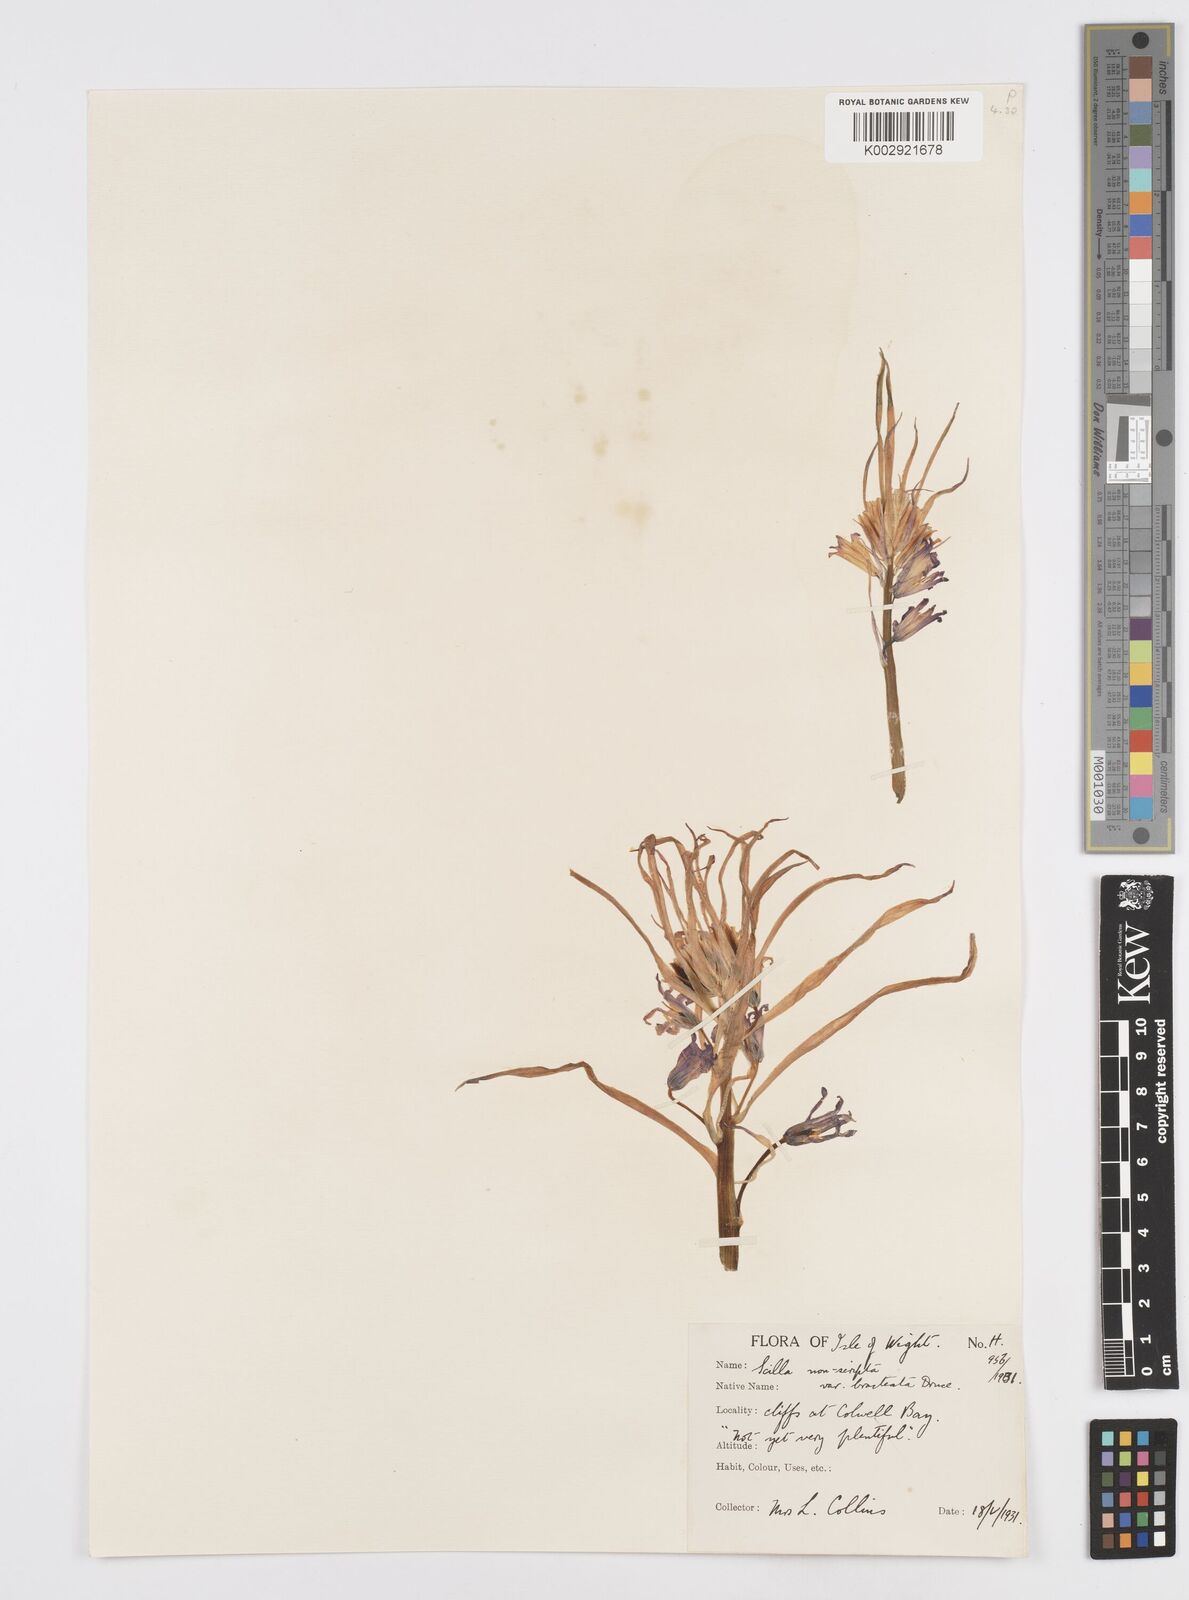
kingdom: Plantae
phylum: Tracheophyta
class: Liliopsida
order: Asparagales
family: Asparagaceae
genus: Hyacinthoides
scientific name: Hyacinthoides
